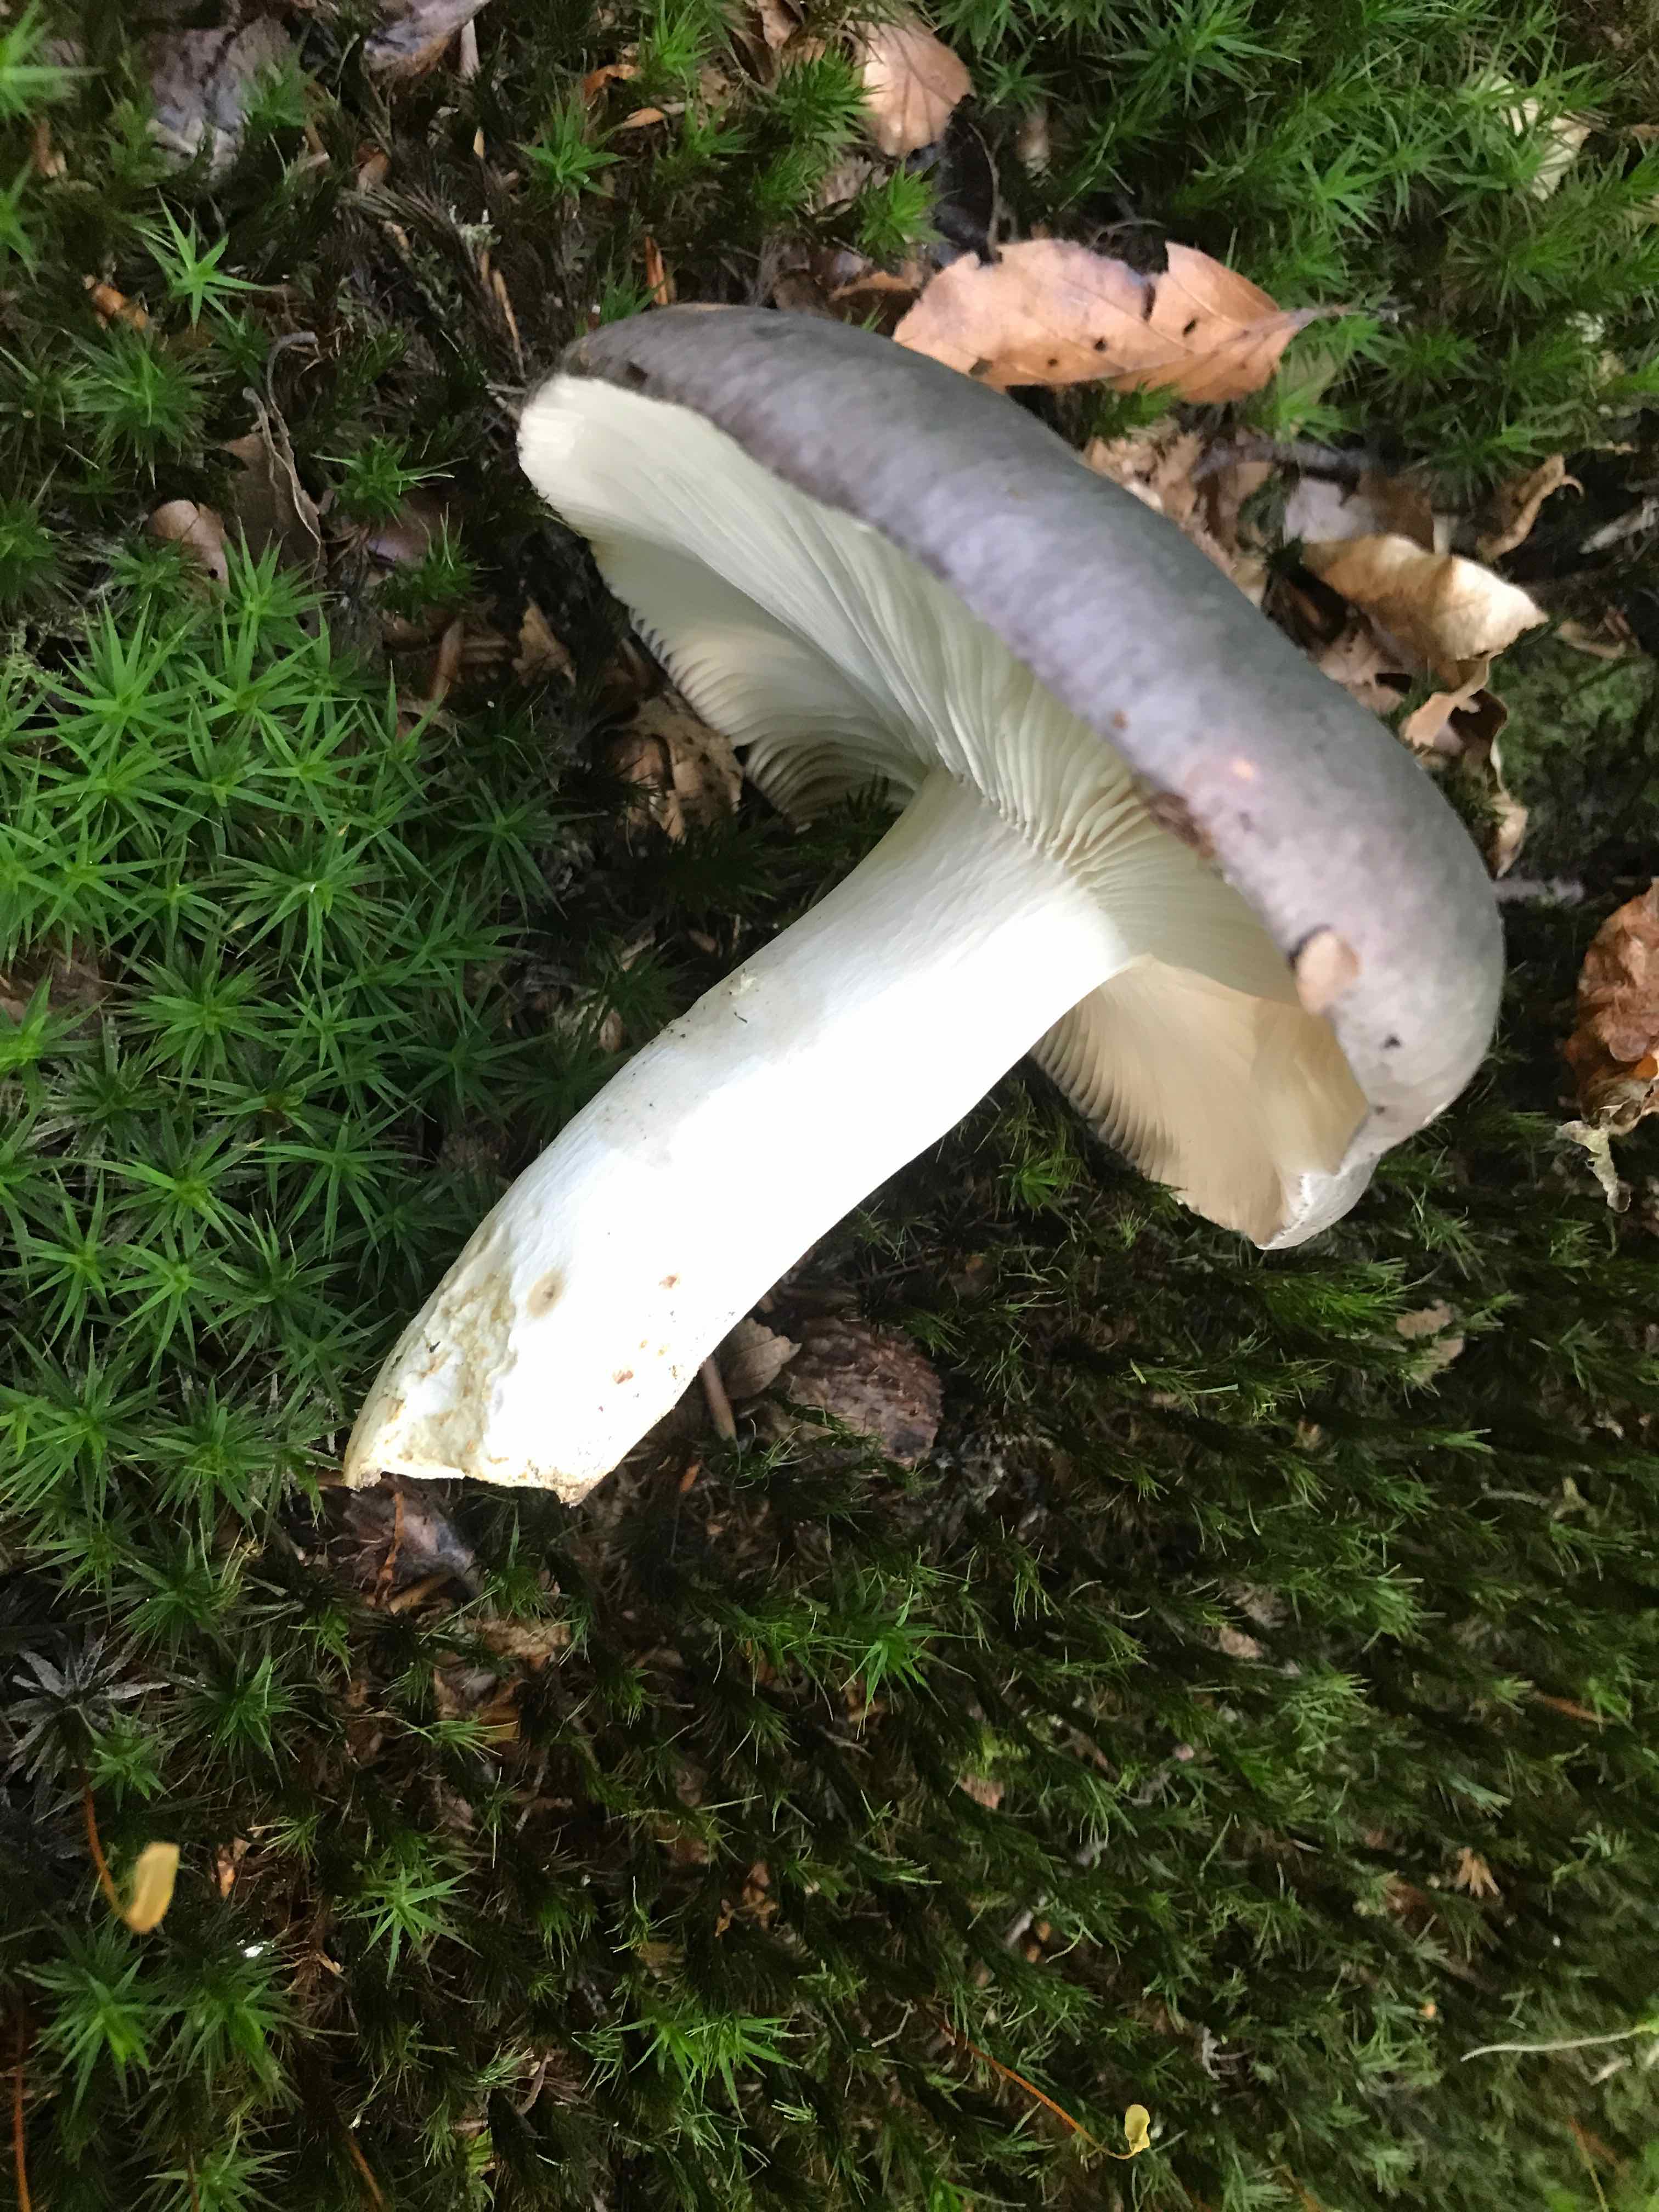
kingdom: Fungi
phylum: Basidiomycota
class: Agaricomycetes
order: Russulales
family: Russulaceae
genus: Russula
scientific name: Russula cyanoxantha
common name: broget skørhat
